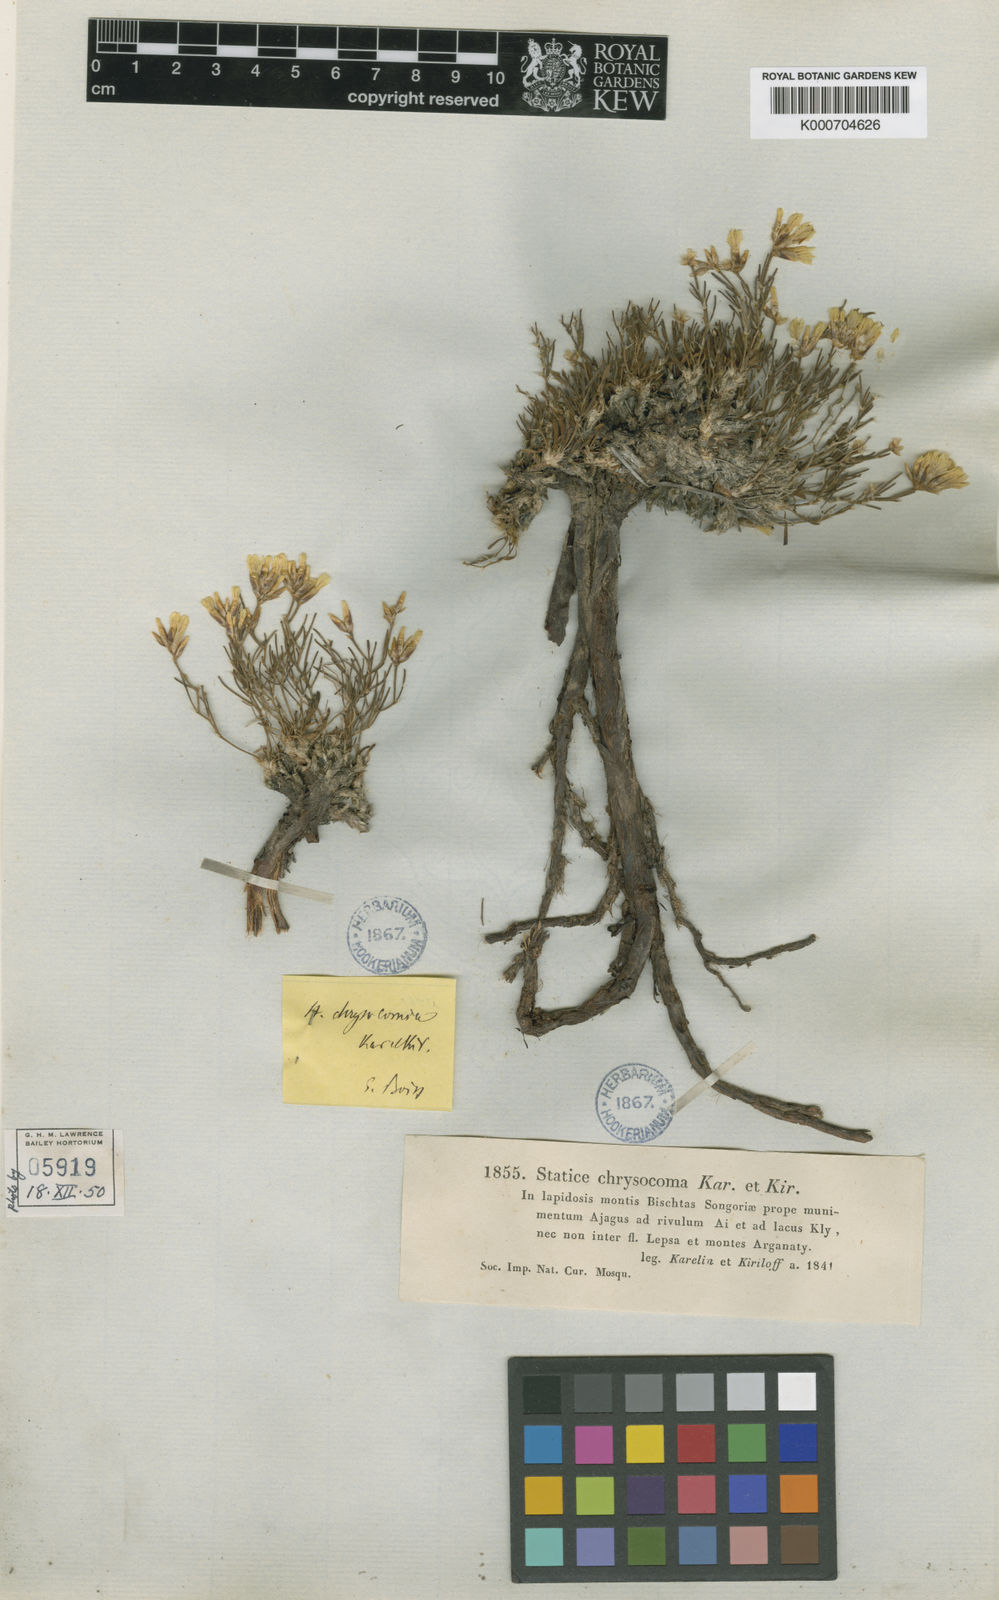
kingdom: Plantae
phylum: Tracheophyta
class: Magnoliopsida
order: Caryophyllales
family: Plumbaginaceae
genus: Limonium
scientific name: Limonium chrysocomum
